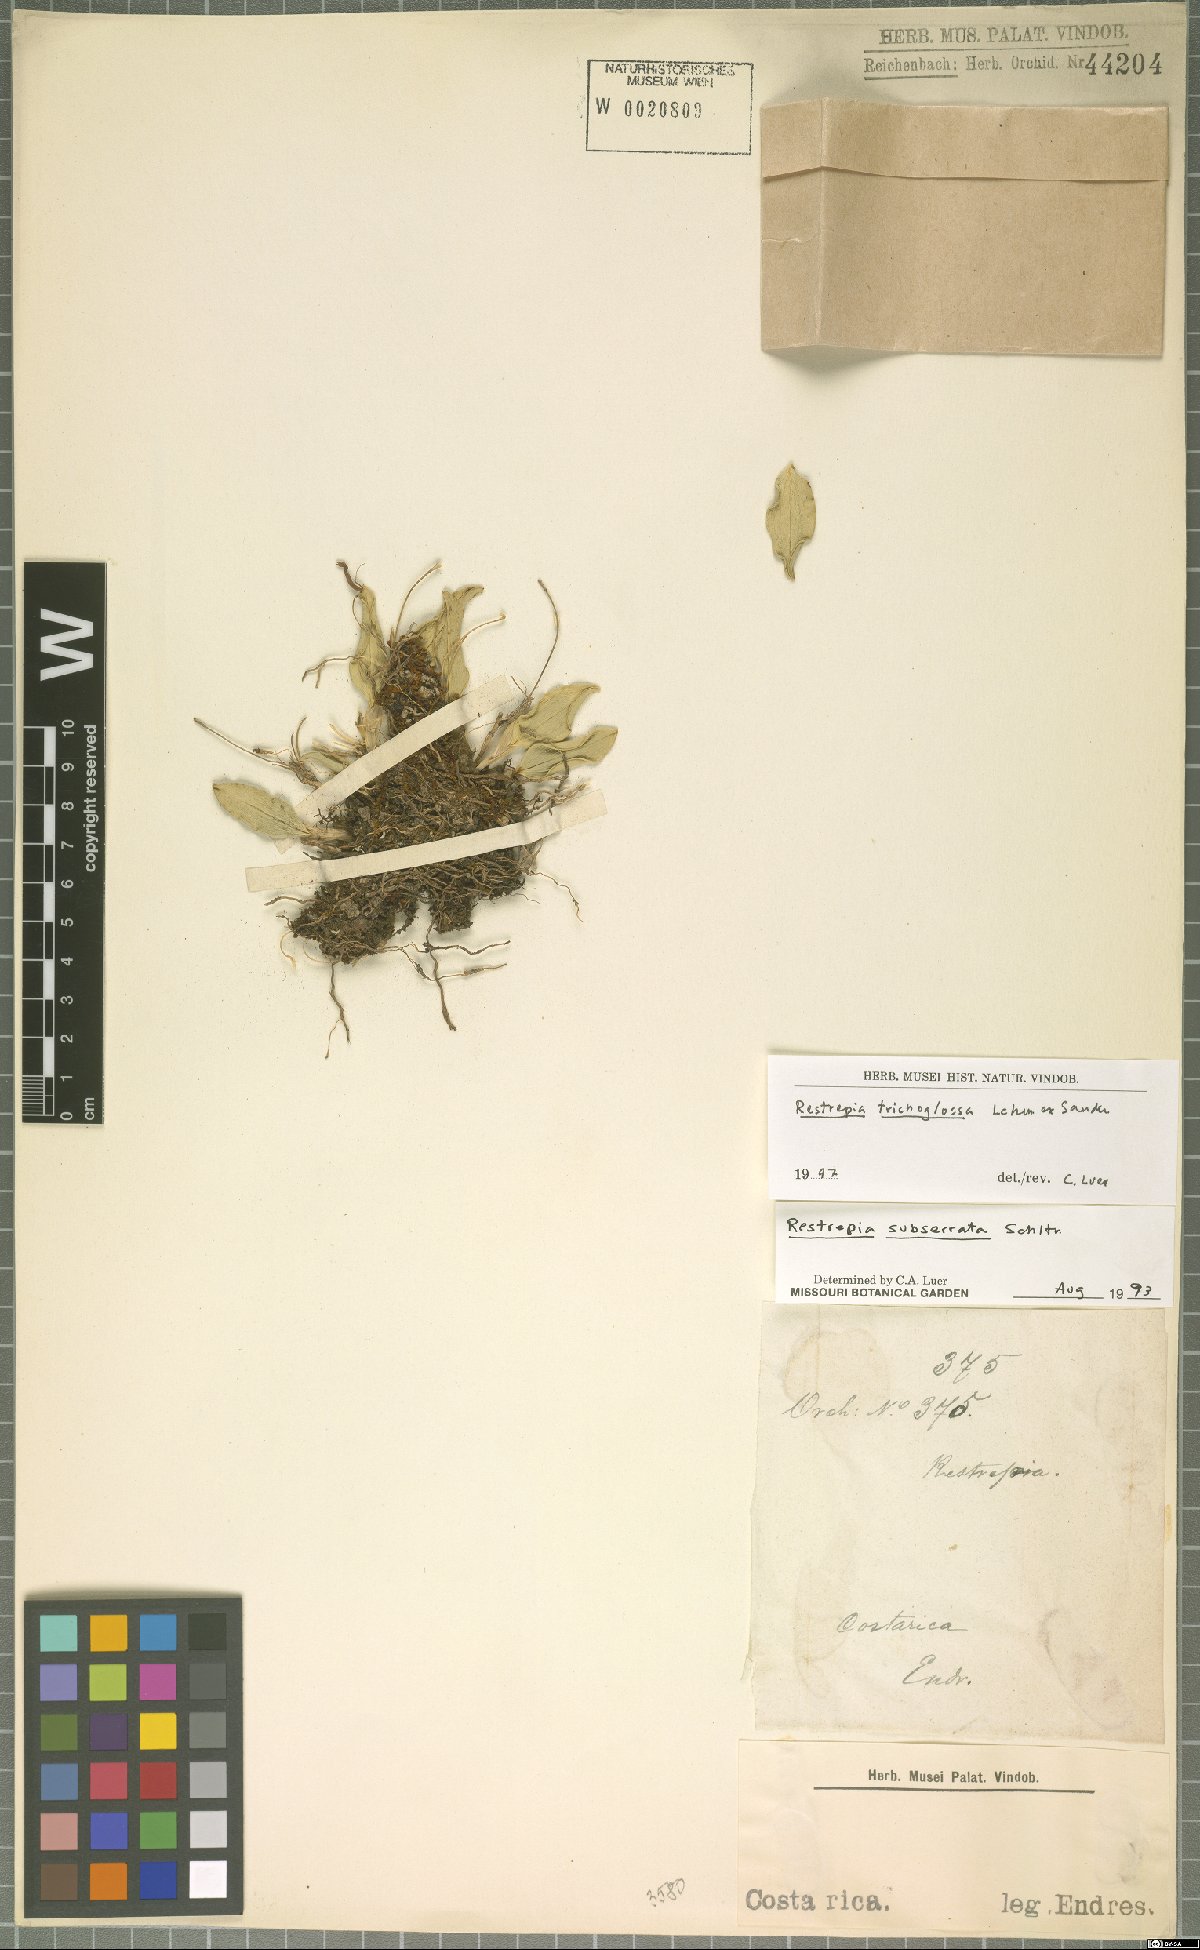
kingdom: Plantae
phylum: Tracheophyta
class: Liliopsida
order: Asparagales
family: Orchidaceae
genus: Restrepia
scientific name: Restrepia trichoglossa
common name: Hairy tongued restrepia
